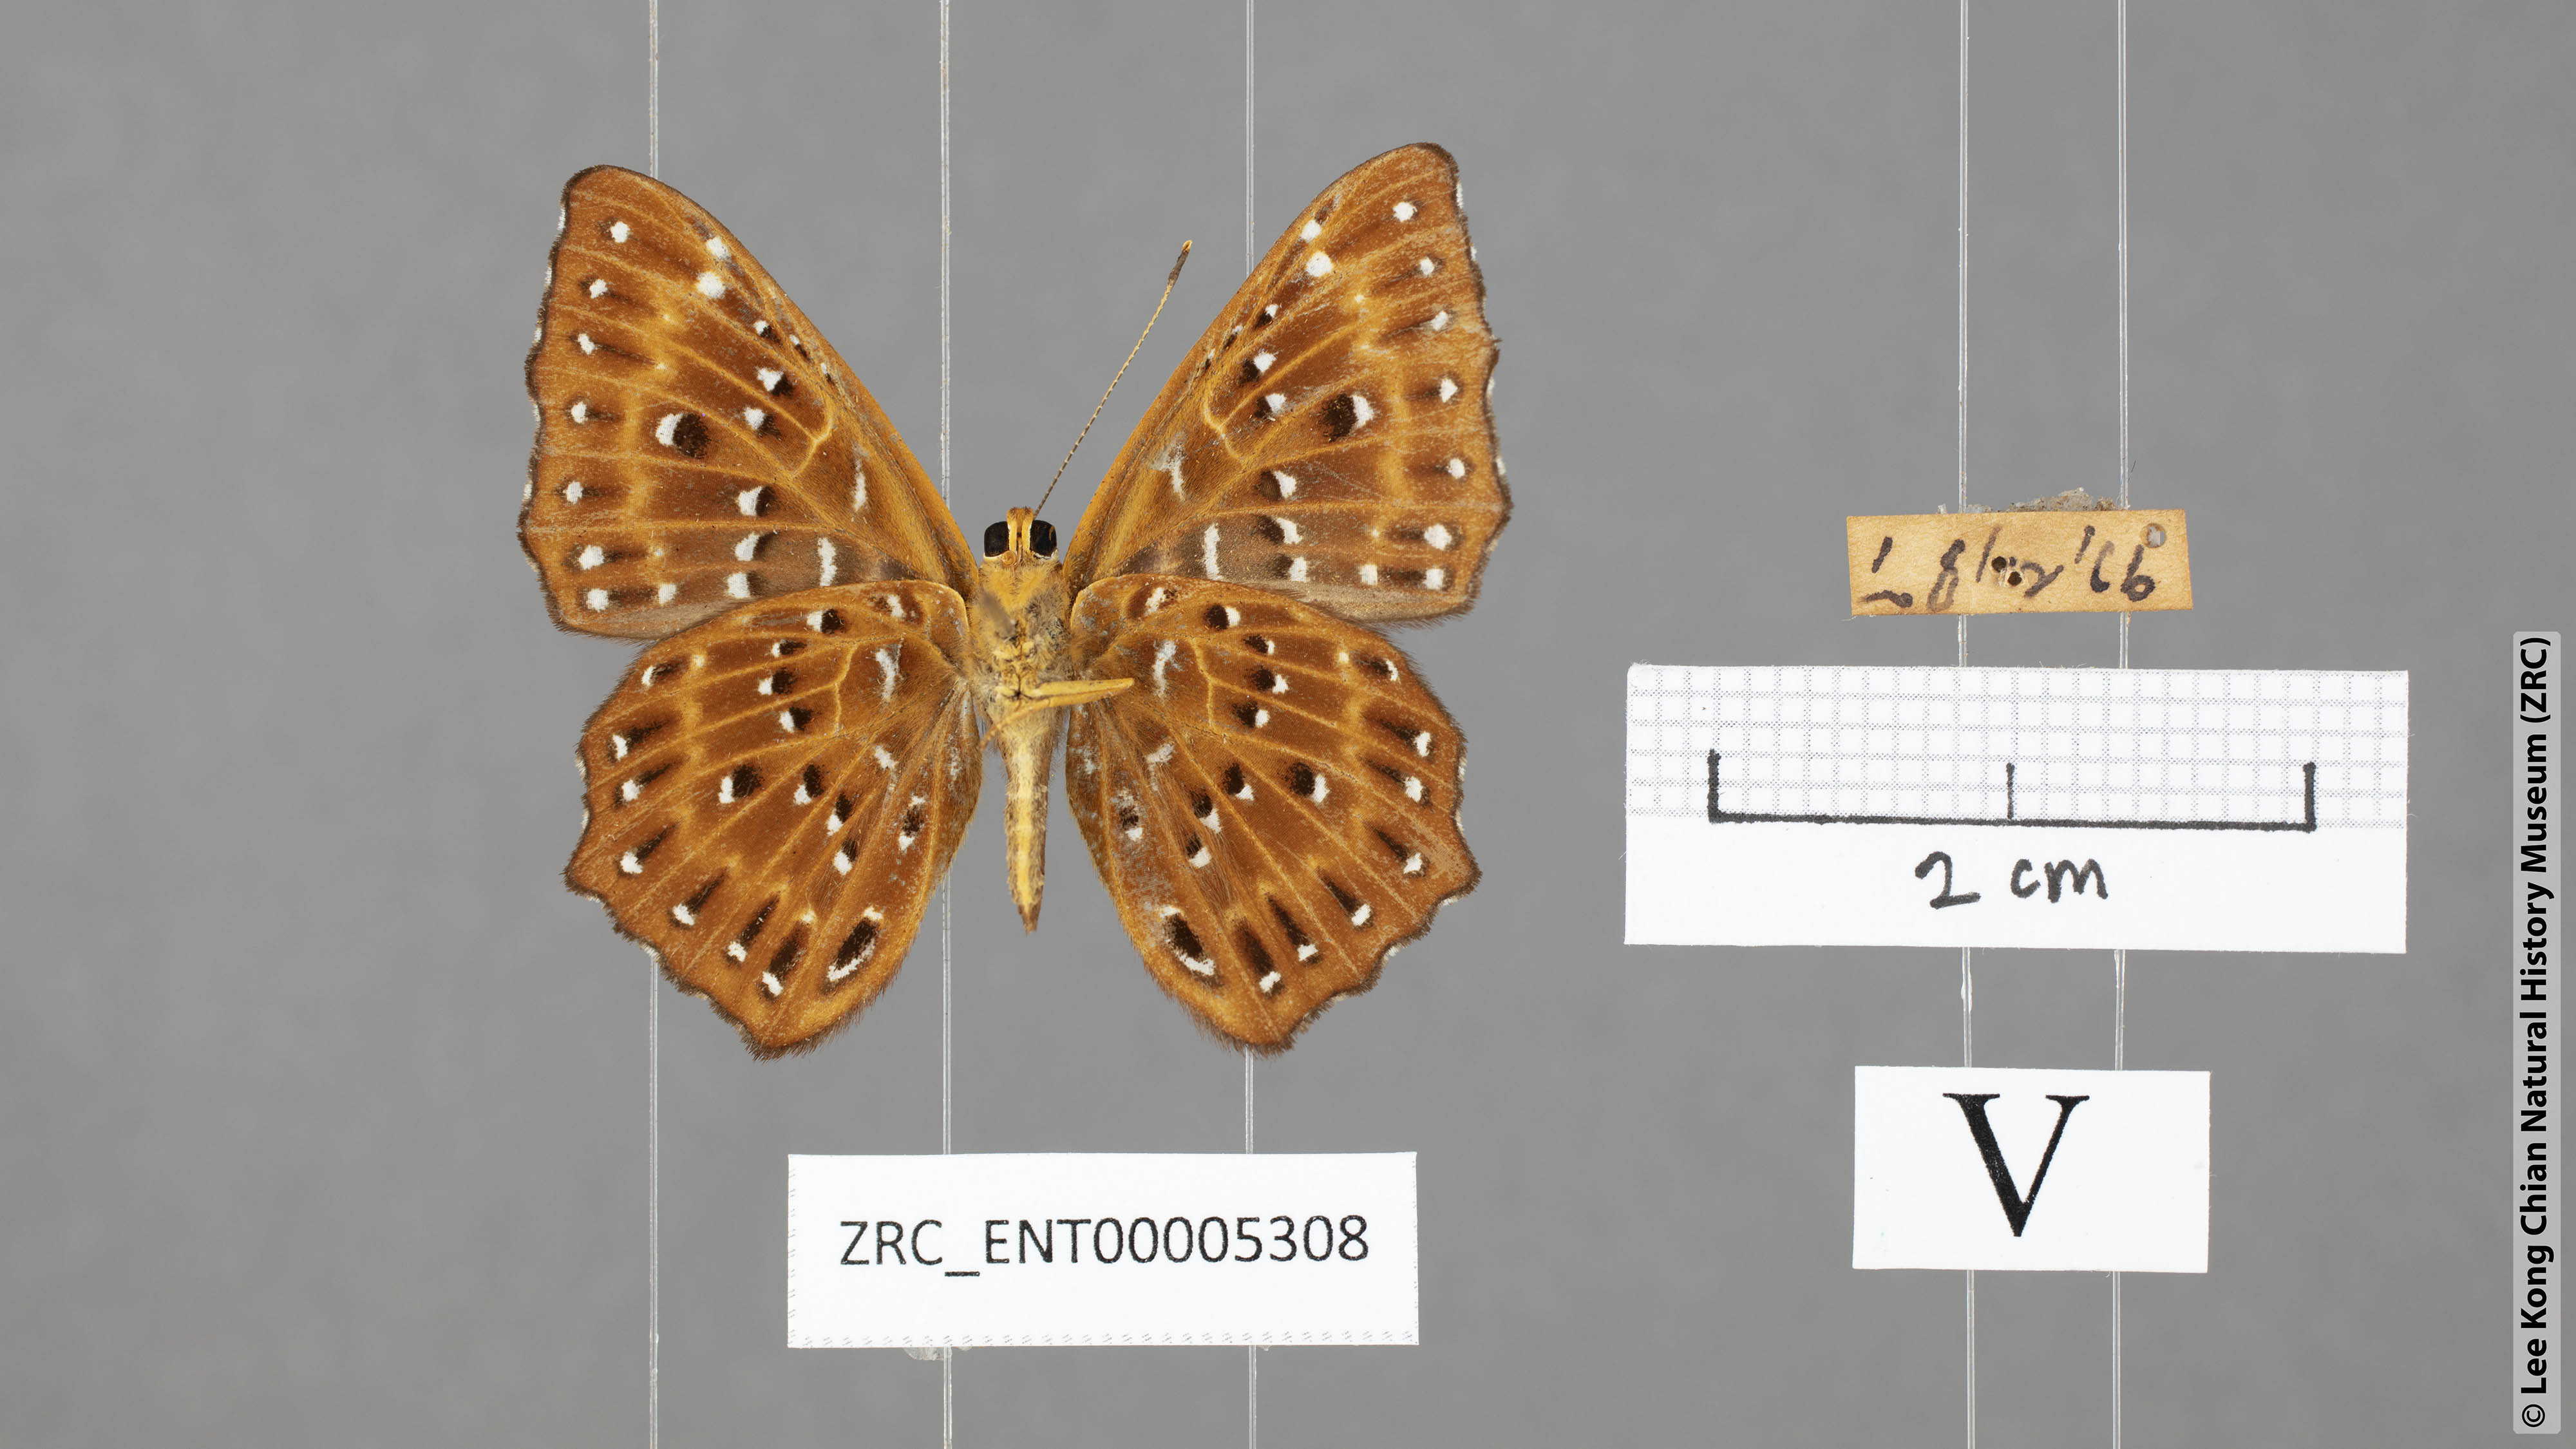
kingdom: Animalia
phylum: Arthropoda
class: Insecta
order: Lepidoptera
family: Riodinidae
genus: Zemeros
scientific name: Zemeros flegyas
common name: Punchinello
